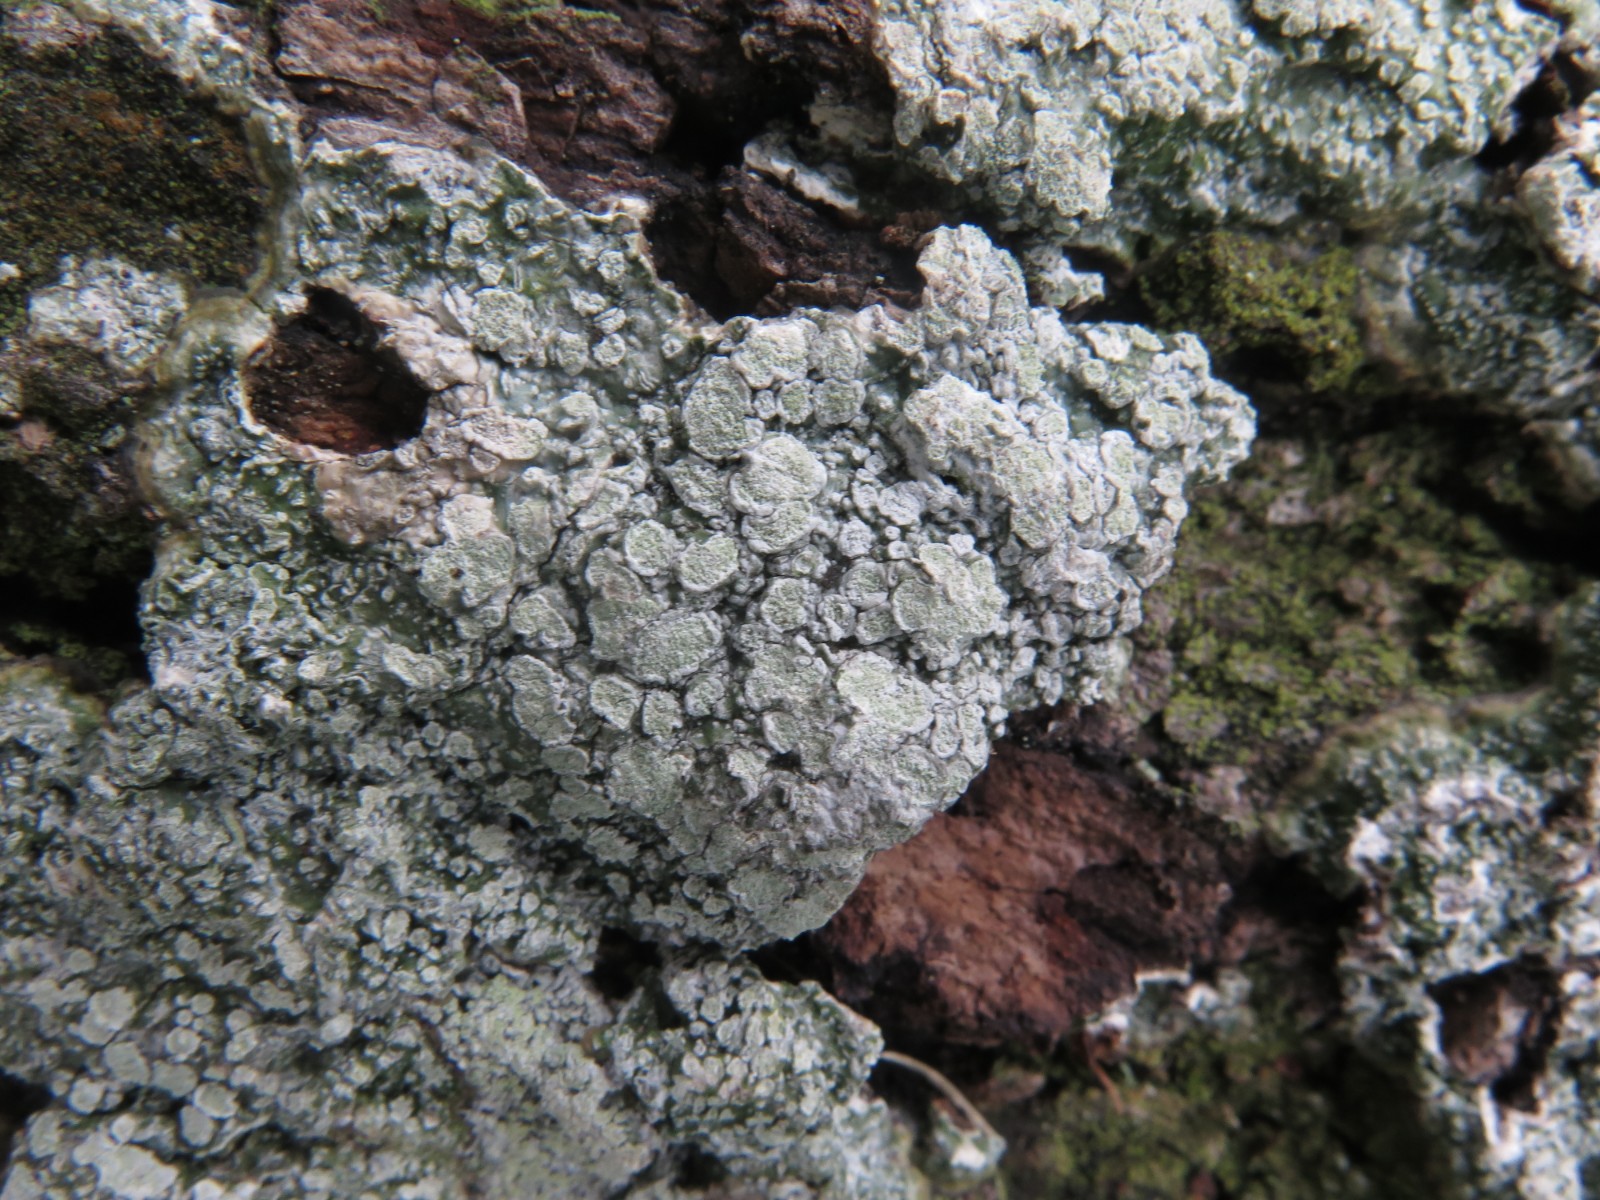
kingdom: Fungi
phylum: Ascomycota
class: Lecanoromycetes
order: Pertusariales
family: Pertusariaceae
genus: Lepra
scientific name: Lepra amara
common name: bitter prikvortelav
